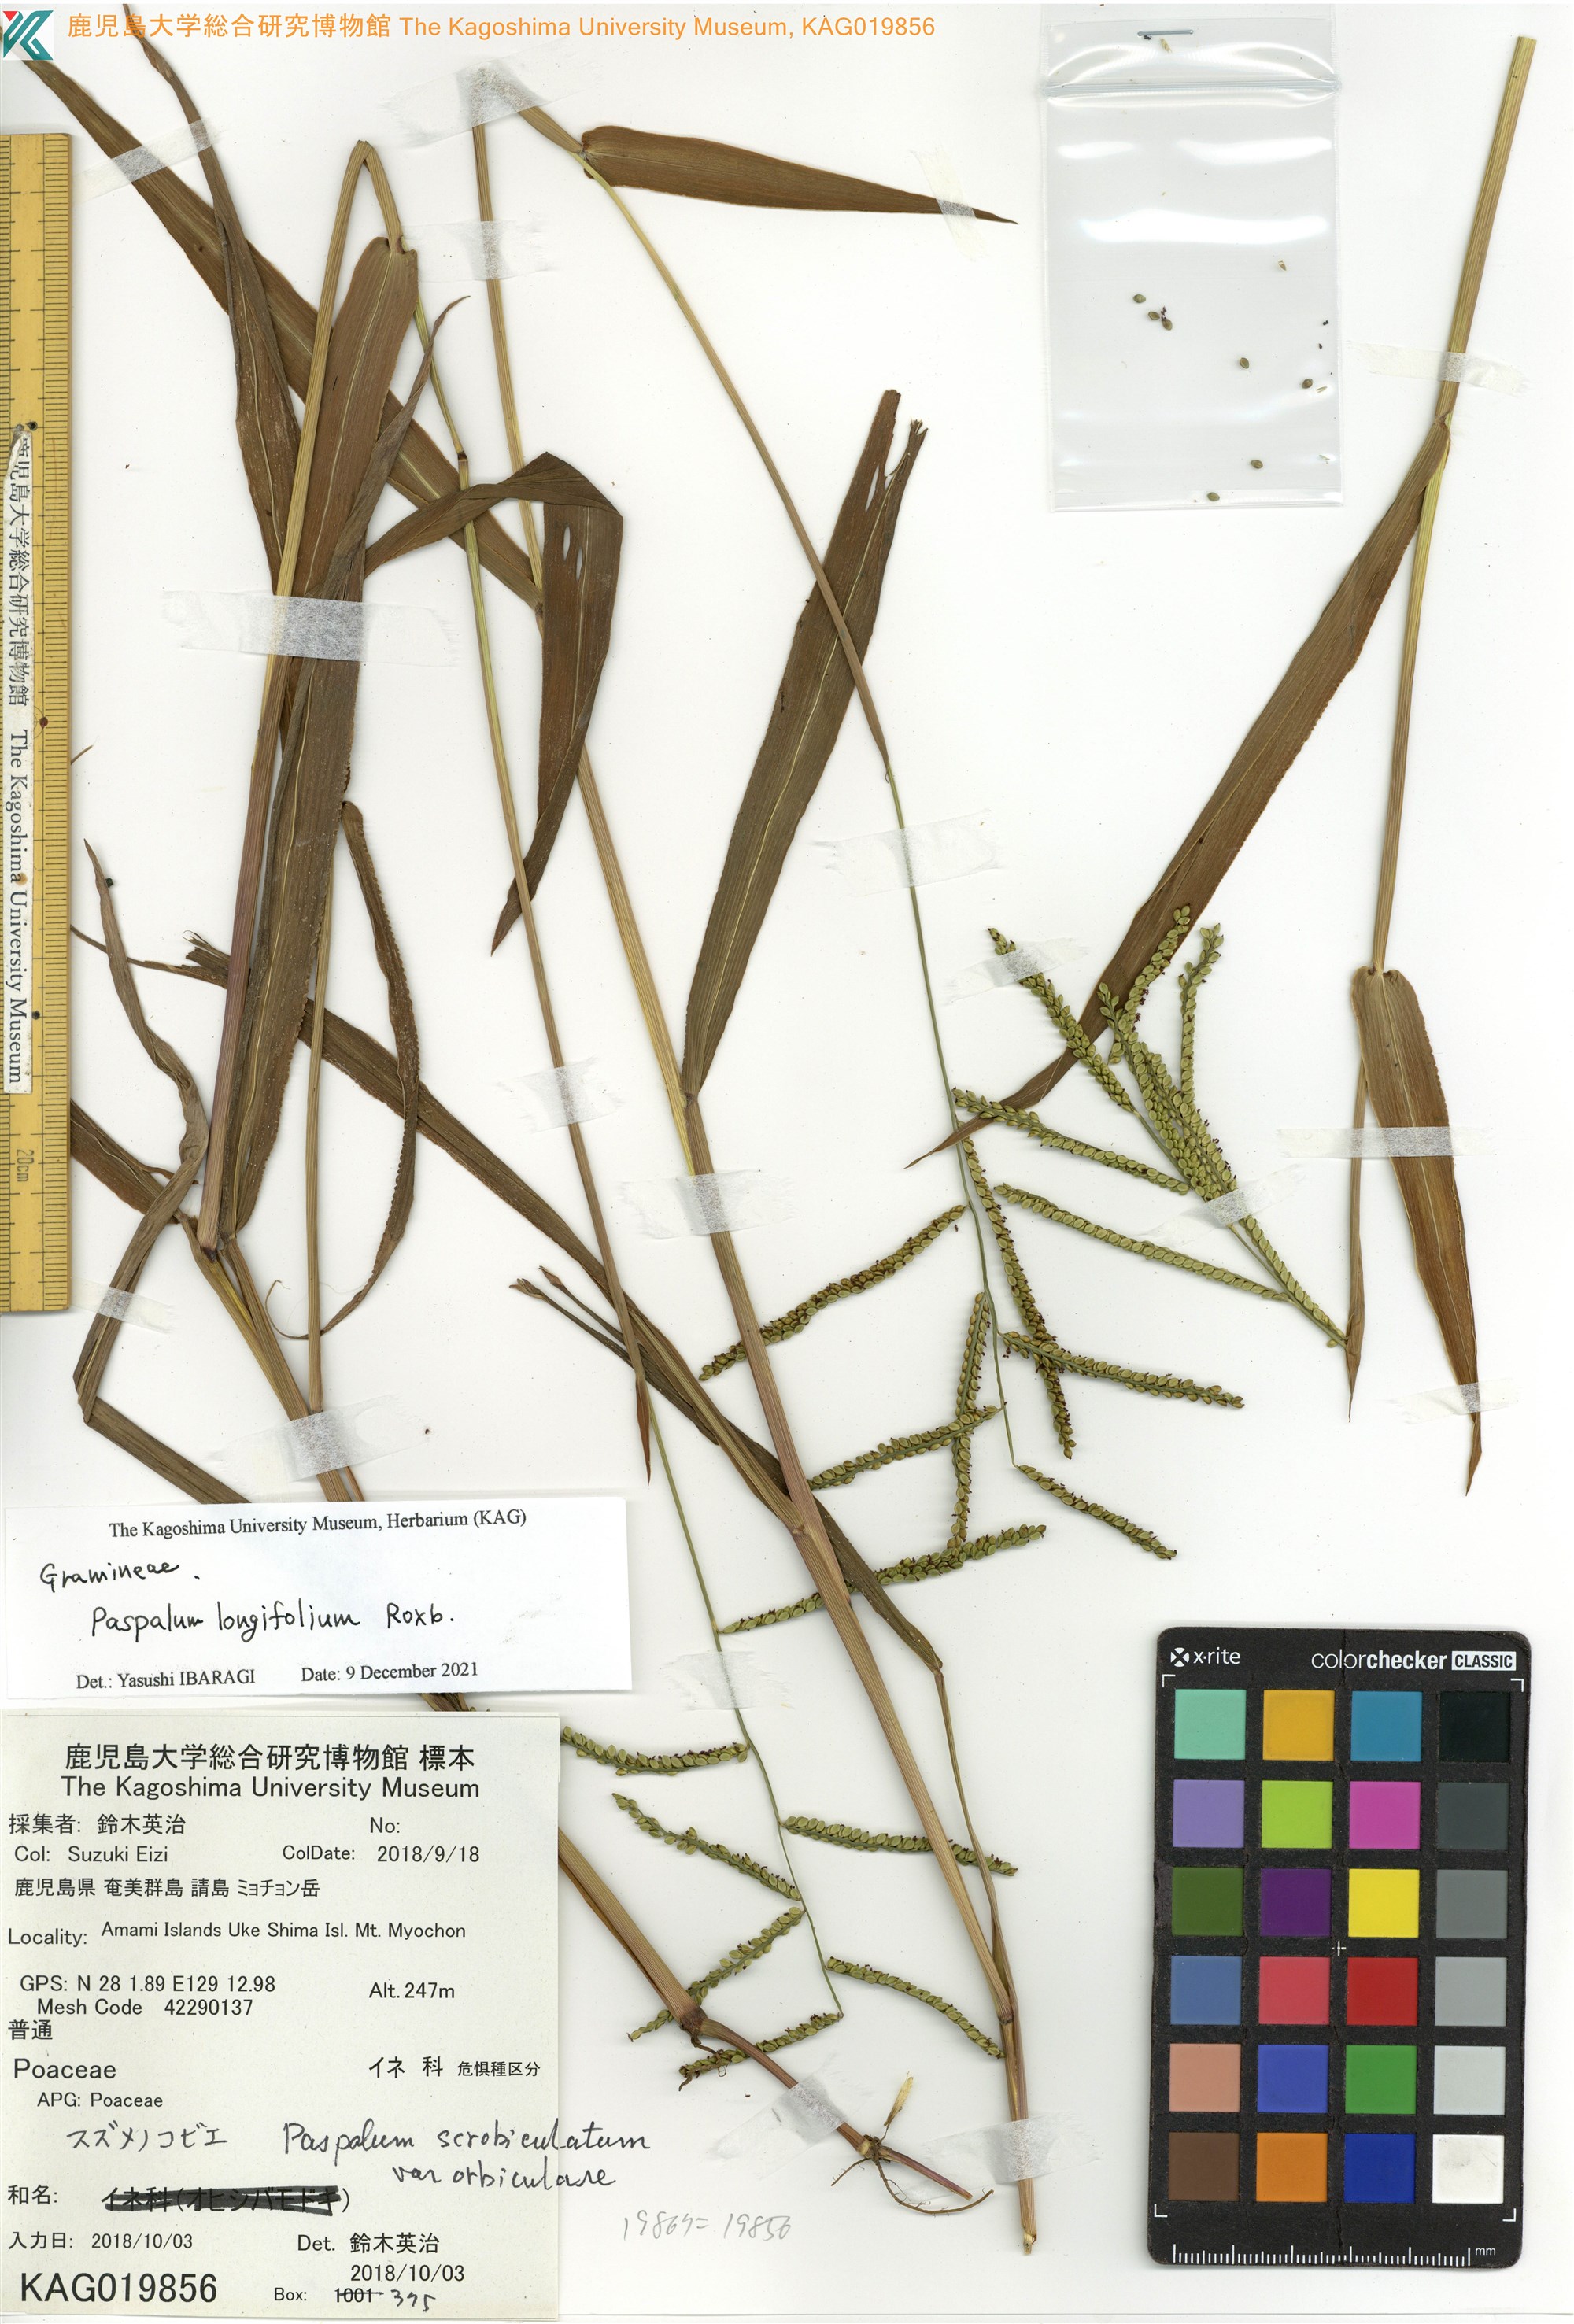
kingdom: Plantae
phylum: Tracheophyta
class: Liliopsida
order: Poales
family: Poaceae
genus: Paspalum
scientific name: Paspalum scrobiculatum
